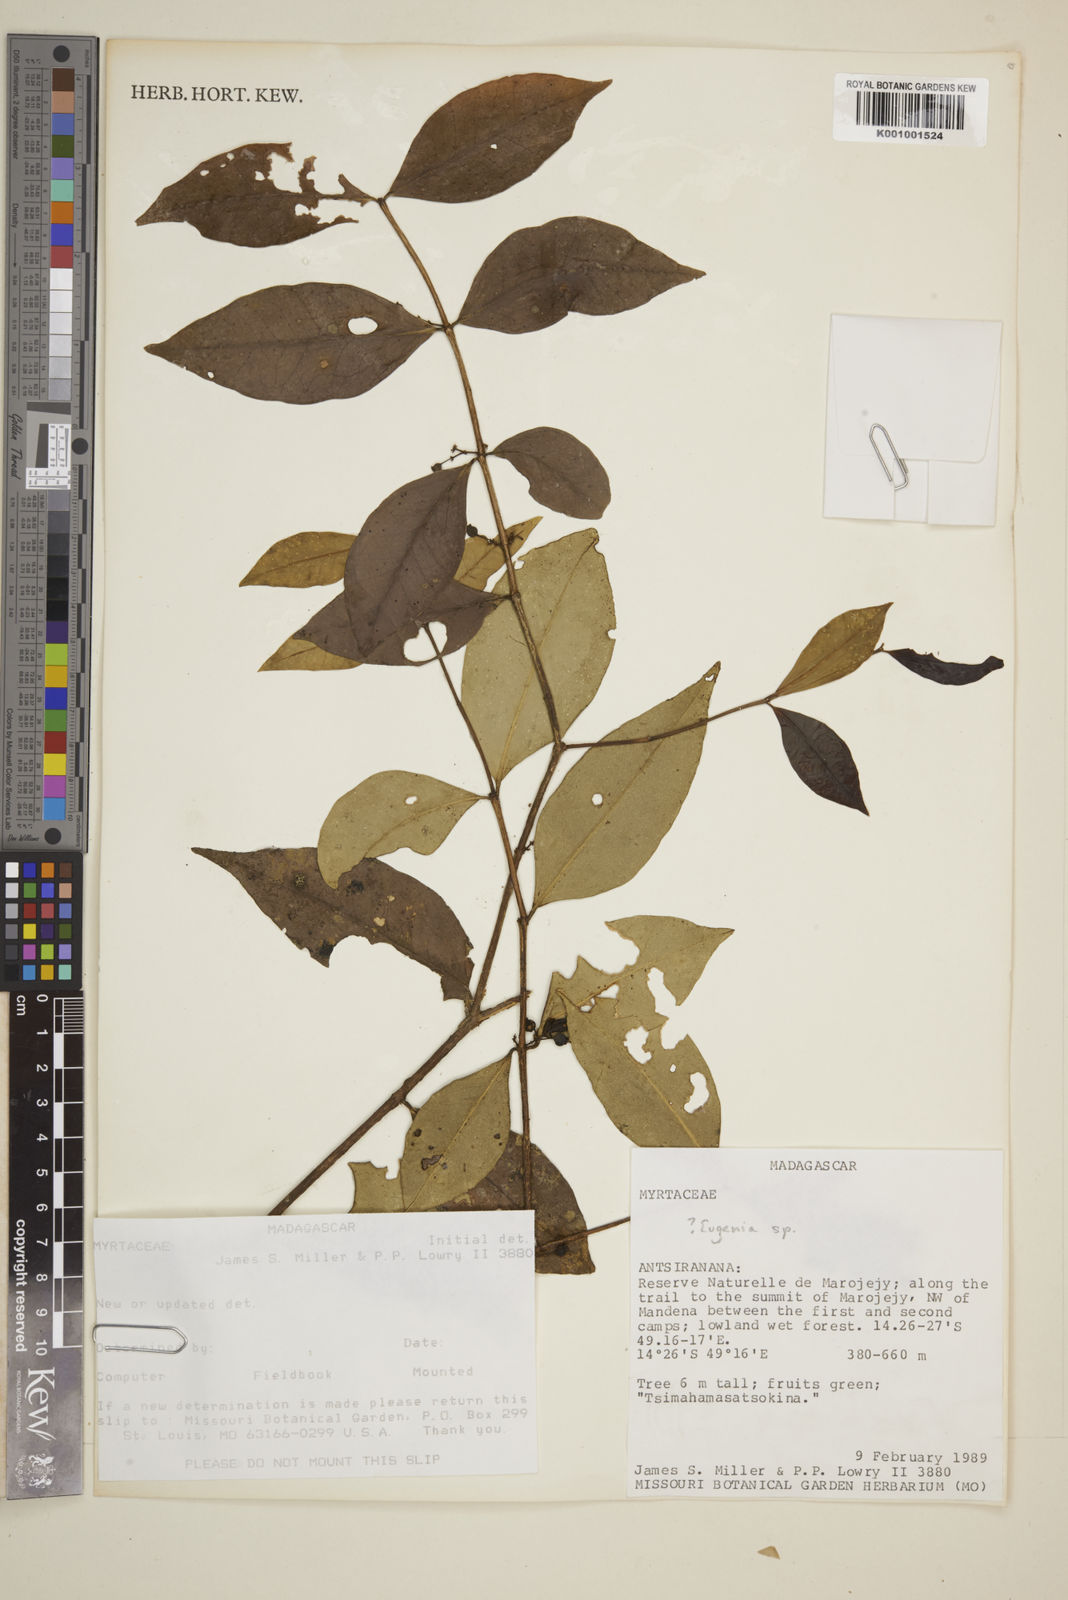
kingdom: Plantae
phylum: Tracheophyta
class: Magnoliopsida
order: Myrtales
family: Myrtaceae
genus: Eugenia
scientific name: Eugenia
